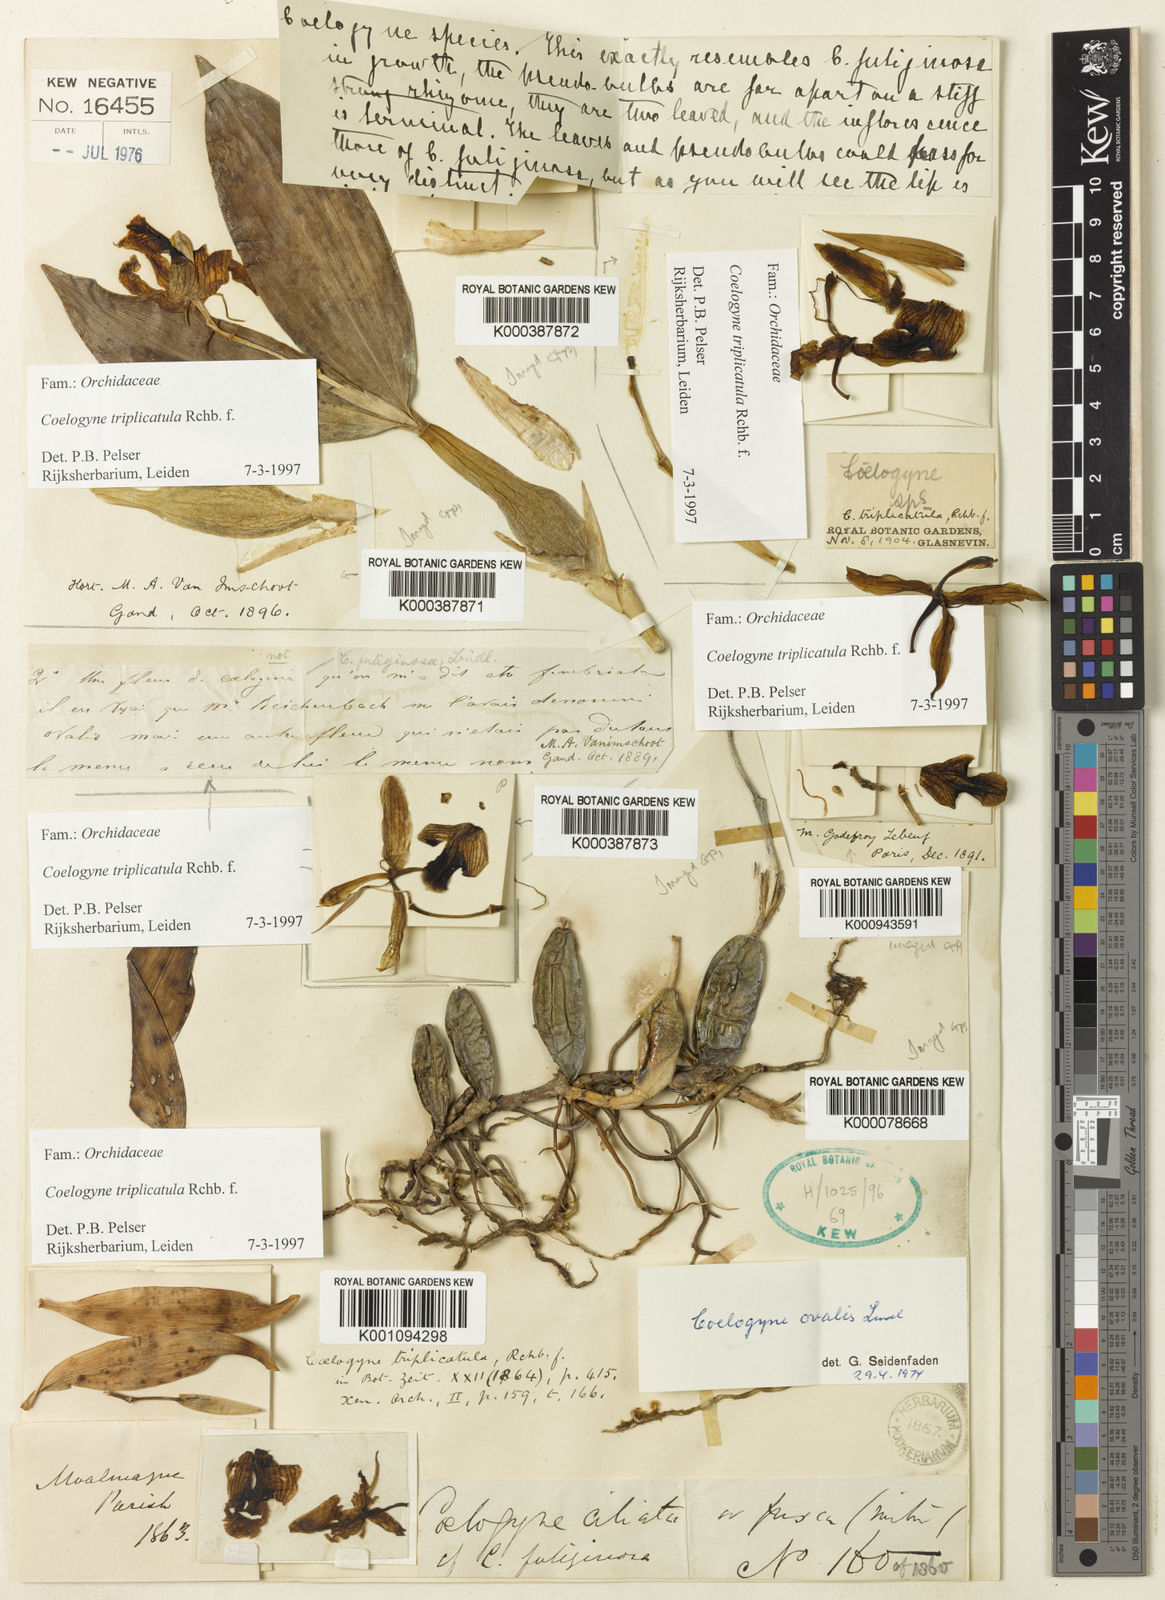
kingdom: Plantae
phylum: Tracheophyta
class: Liliopsida
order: Asparagales
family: Orchidaceae
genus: Coelogyne
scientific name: Coelogyne triplicatula
